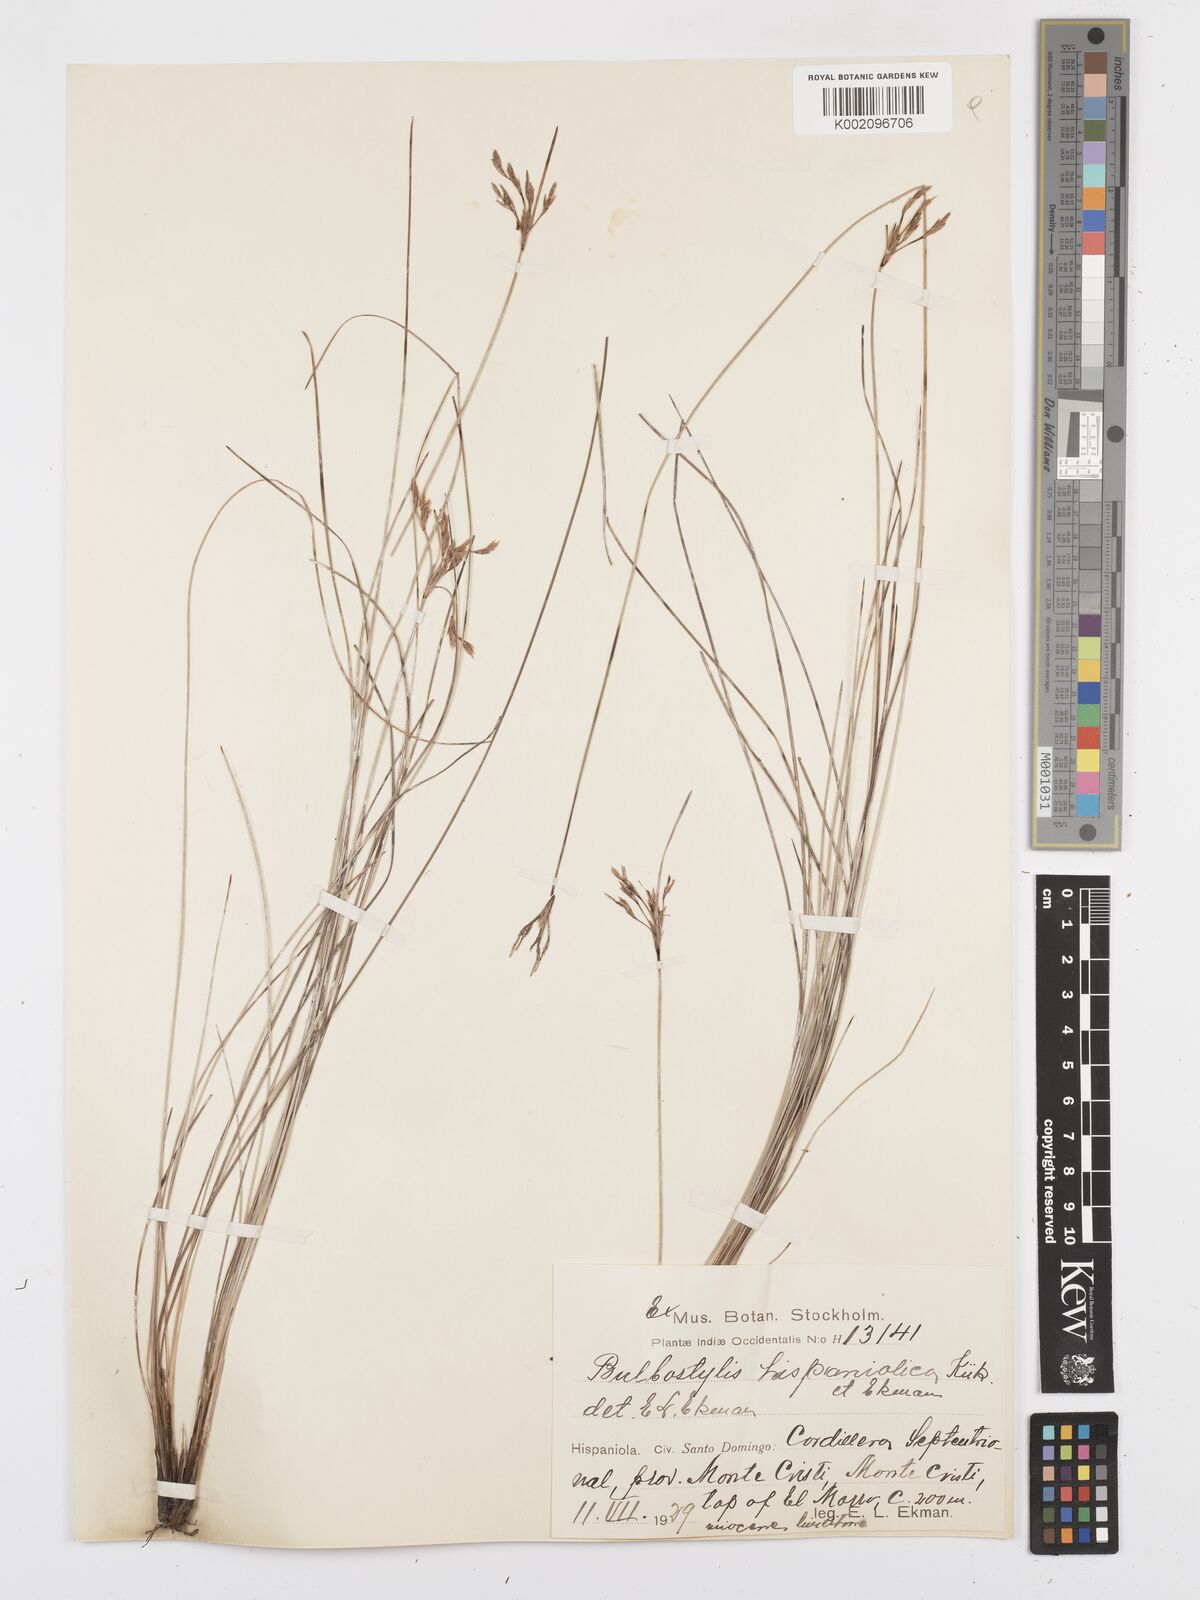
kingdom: Plantae
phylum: Tracheophyta
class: Liliopsida
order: Poales
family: Cyperaceae
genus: Bulbostylis
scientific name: Bulbostylis subaphylla
